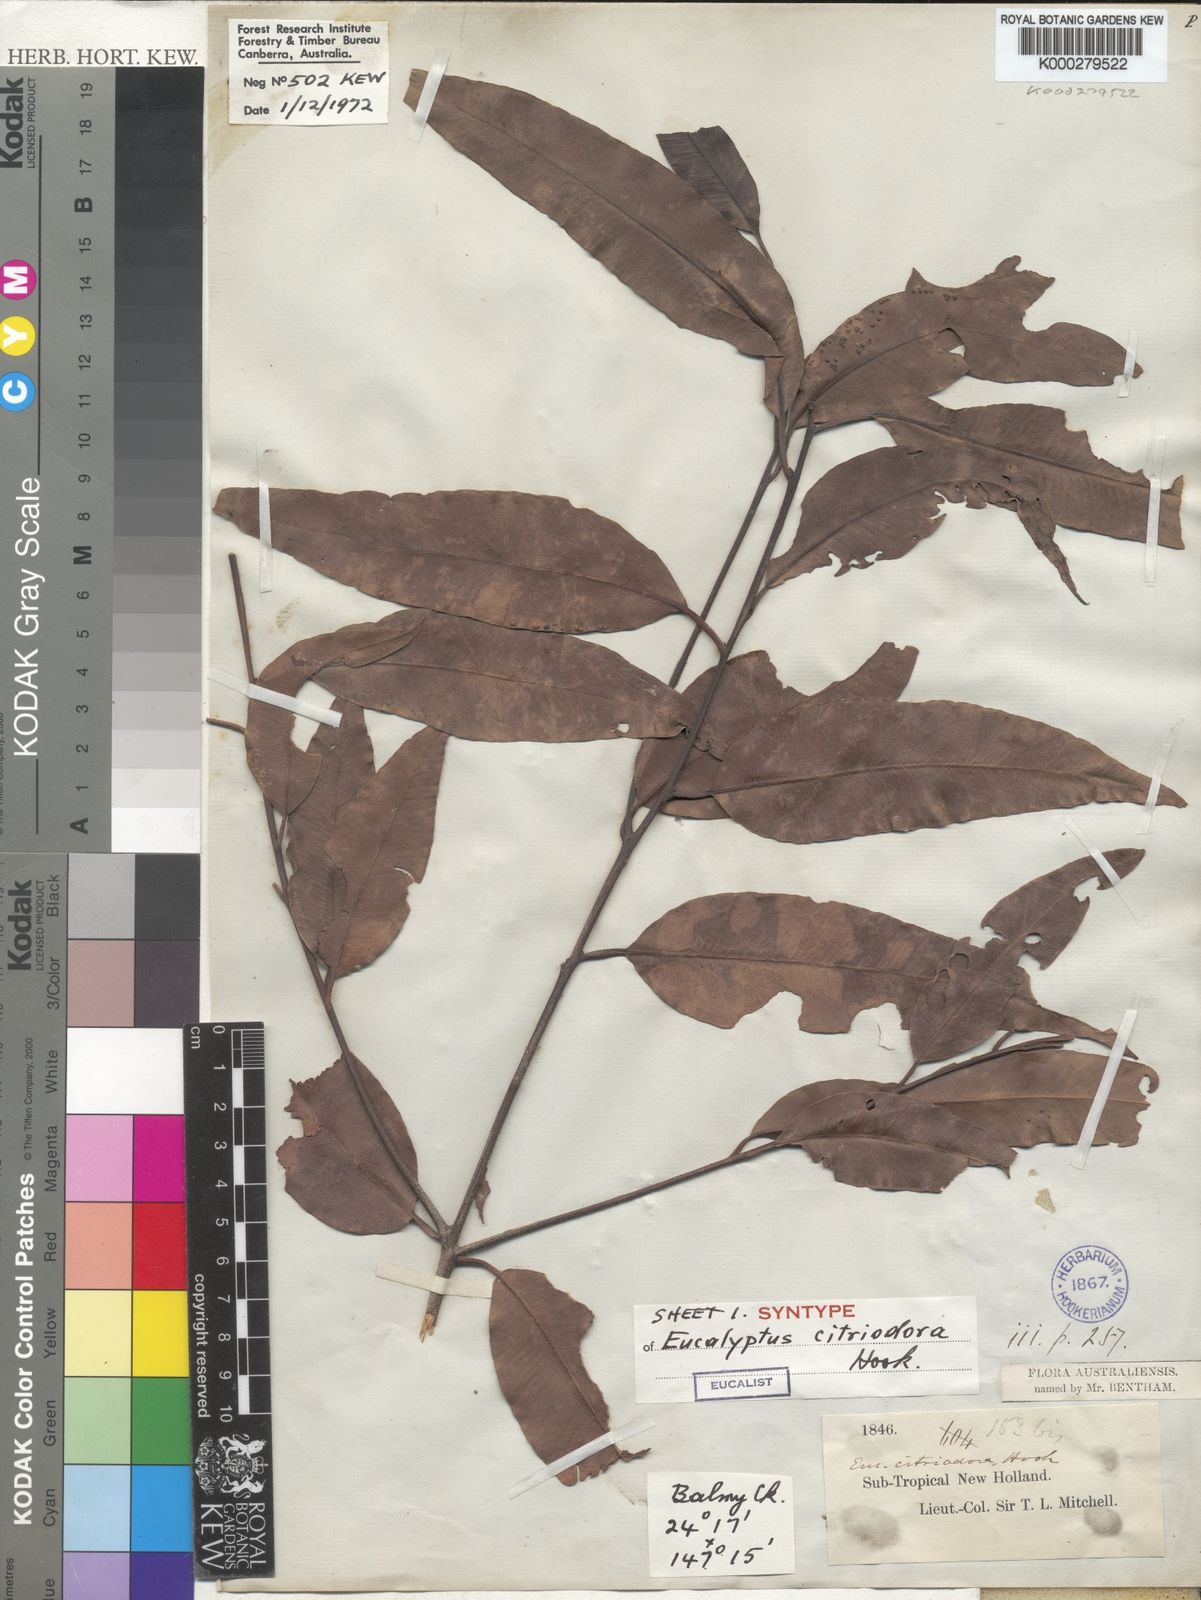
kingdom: Plantae
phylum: Tracheophyta
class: Magnoliopsida
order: Myrtales
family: Myrtaceae
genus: Corymbia
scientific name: Corymbia citriodora
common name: Lemonscented gum
